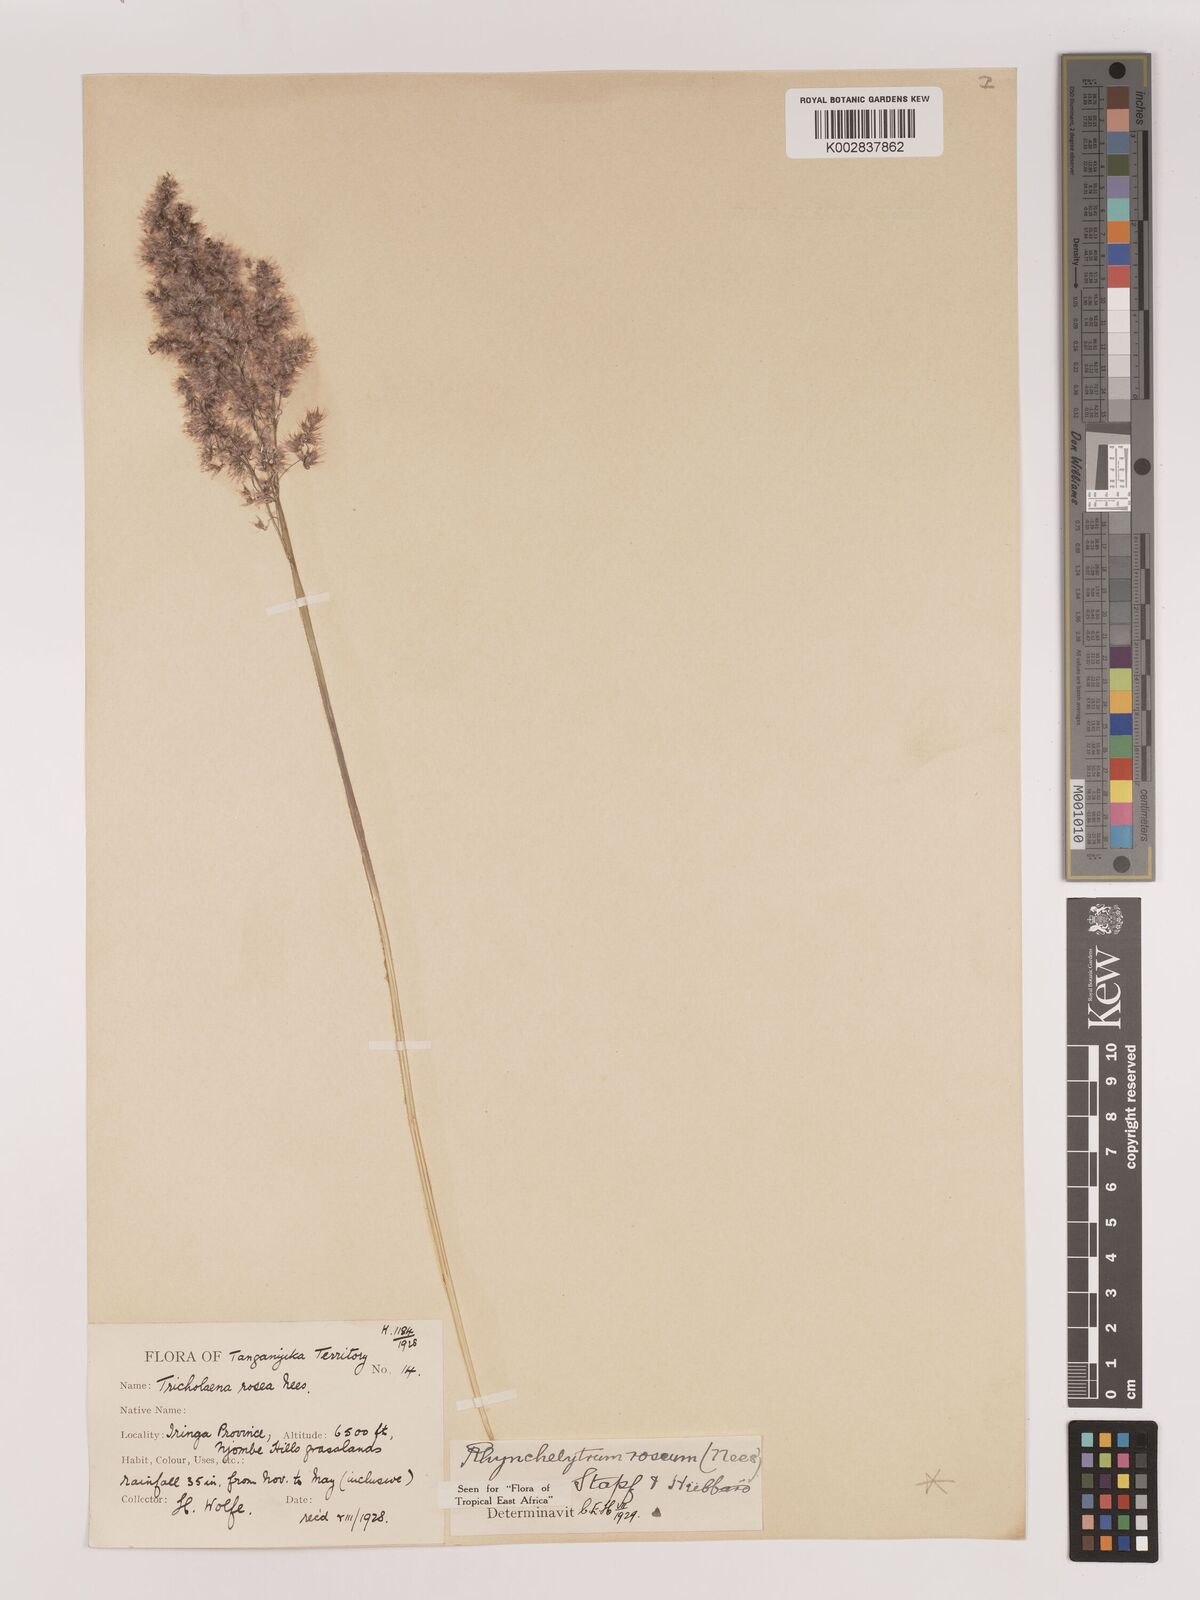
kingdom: Plantae
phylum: Tracheophyta
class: Liliopsida
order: Poales
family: Poaceae
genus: Melinis
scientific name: Melinis repens
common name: Rose natal grass
